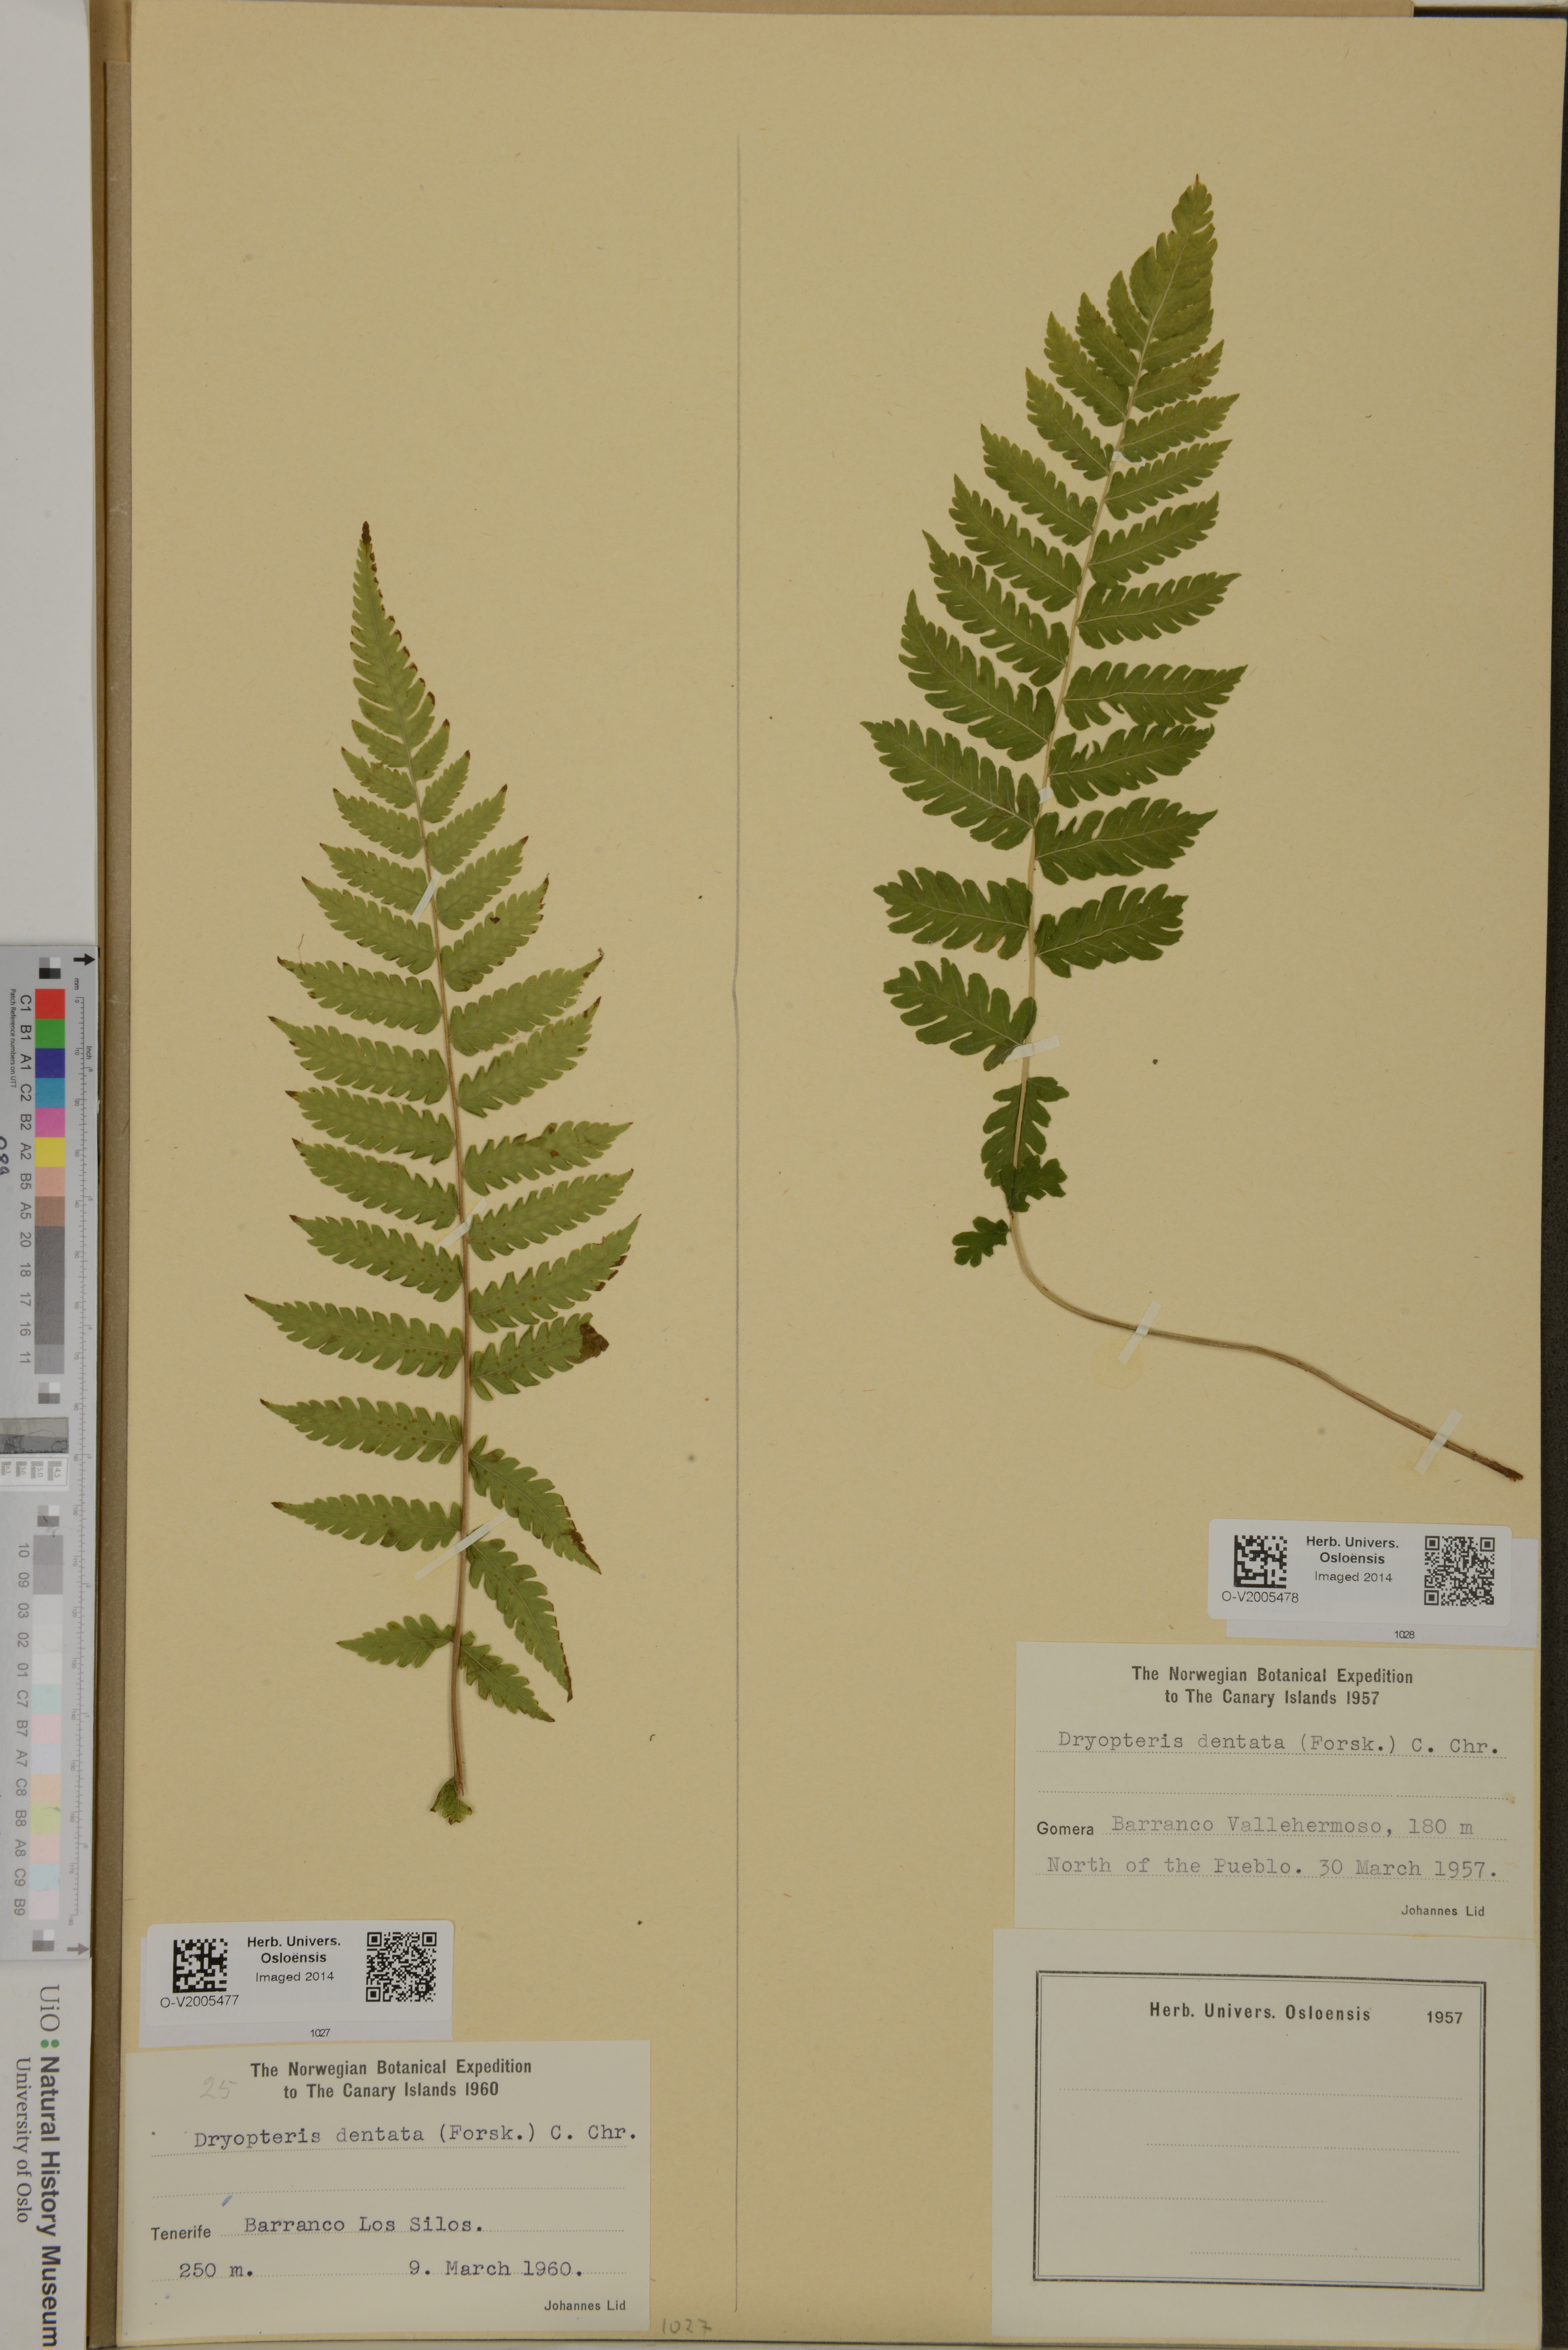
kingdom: Plantae
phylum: Tracheophyta
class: Polypodiopsida
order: Polypodiales
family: Thelypteridaceae
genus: Christella
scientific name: Christella dentata
